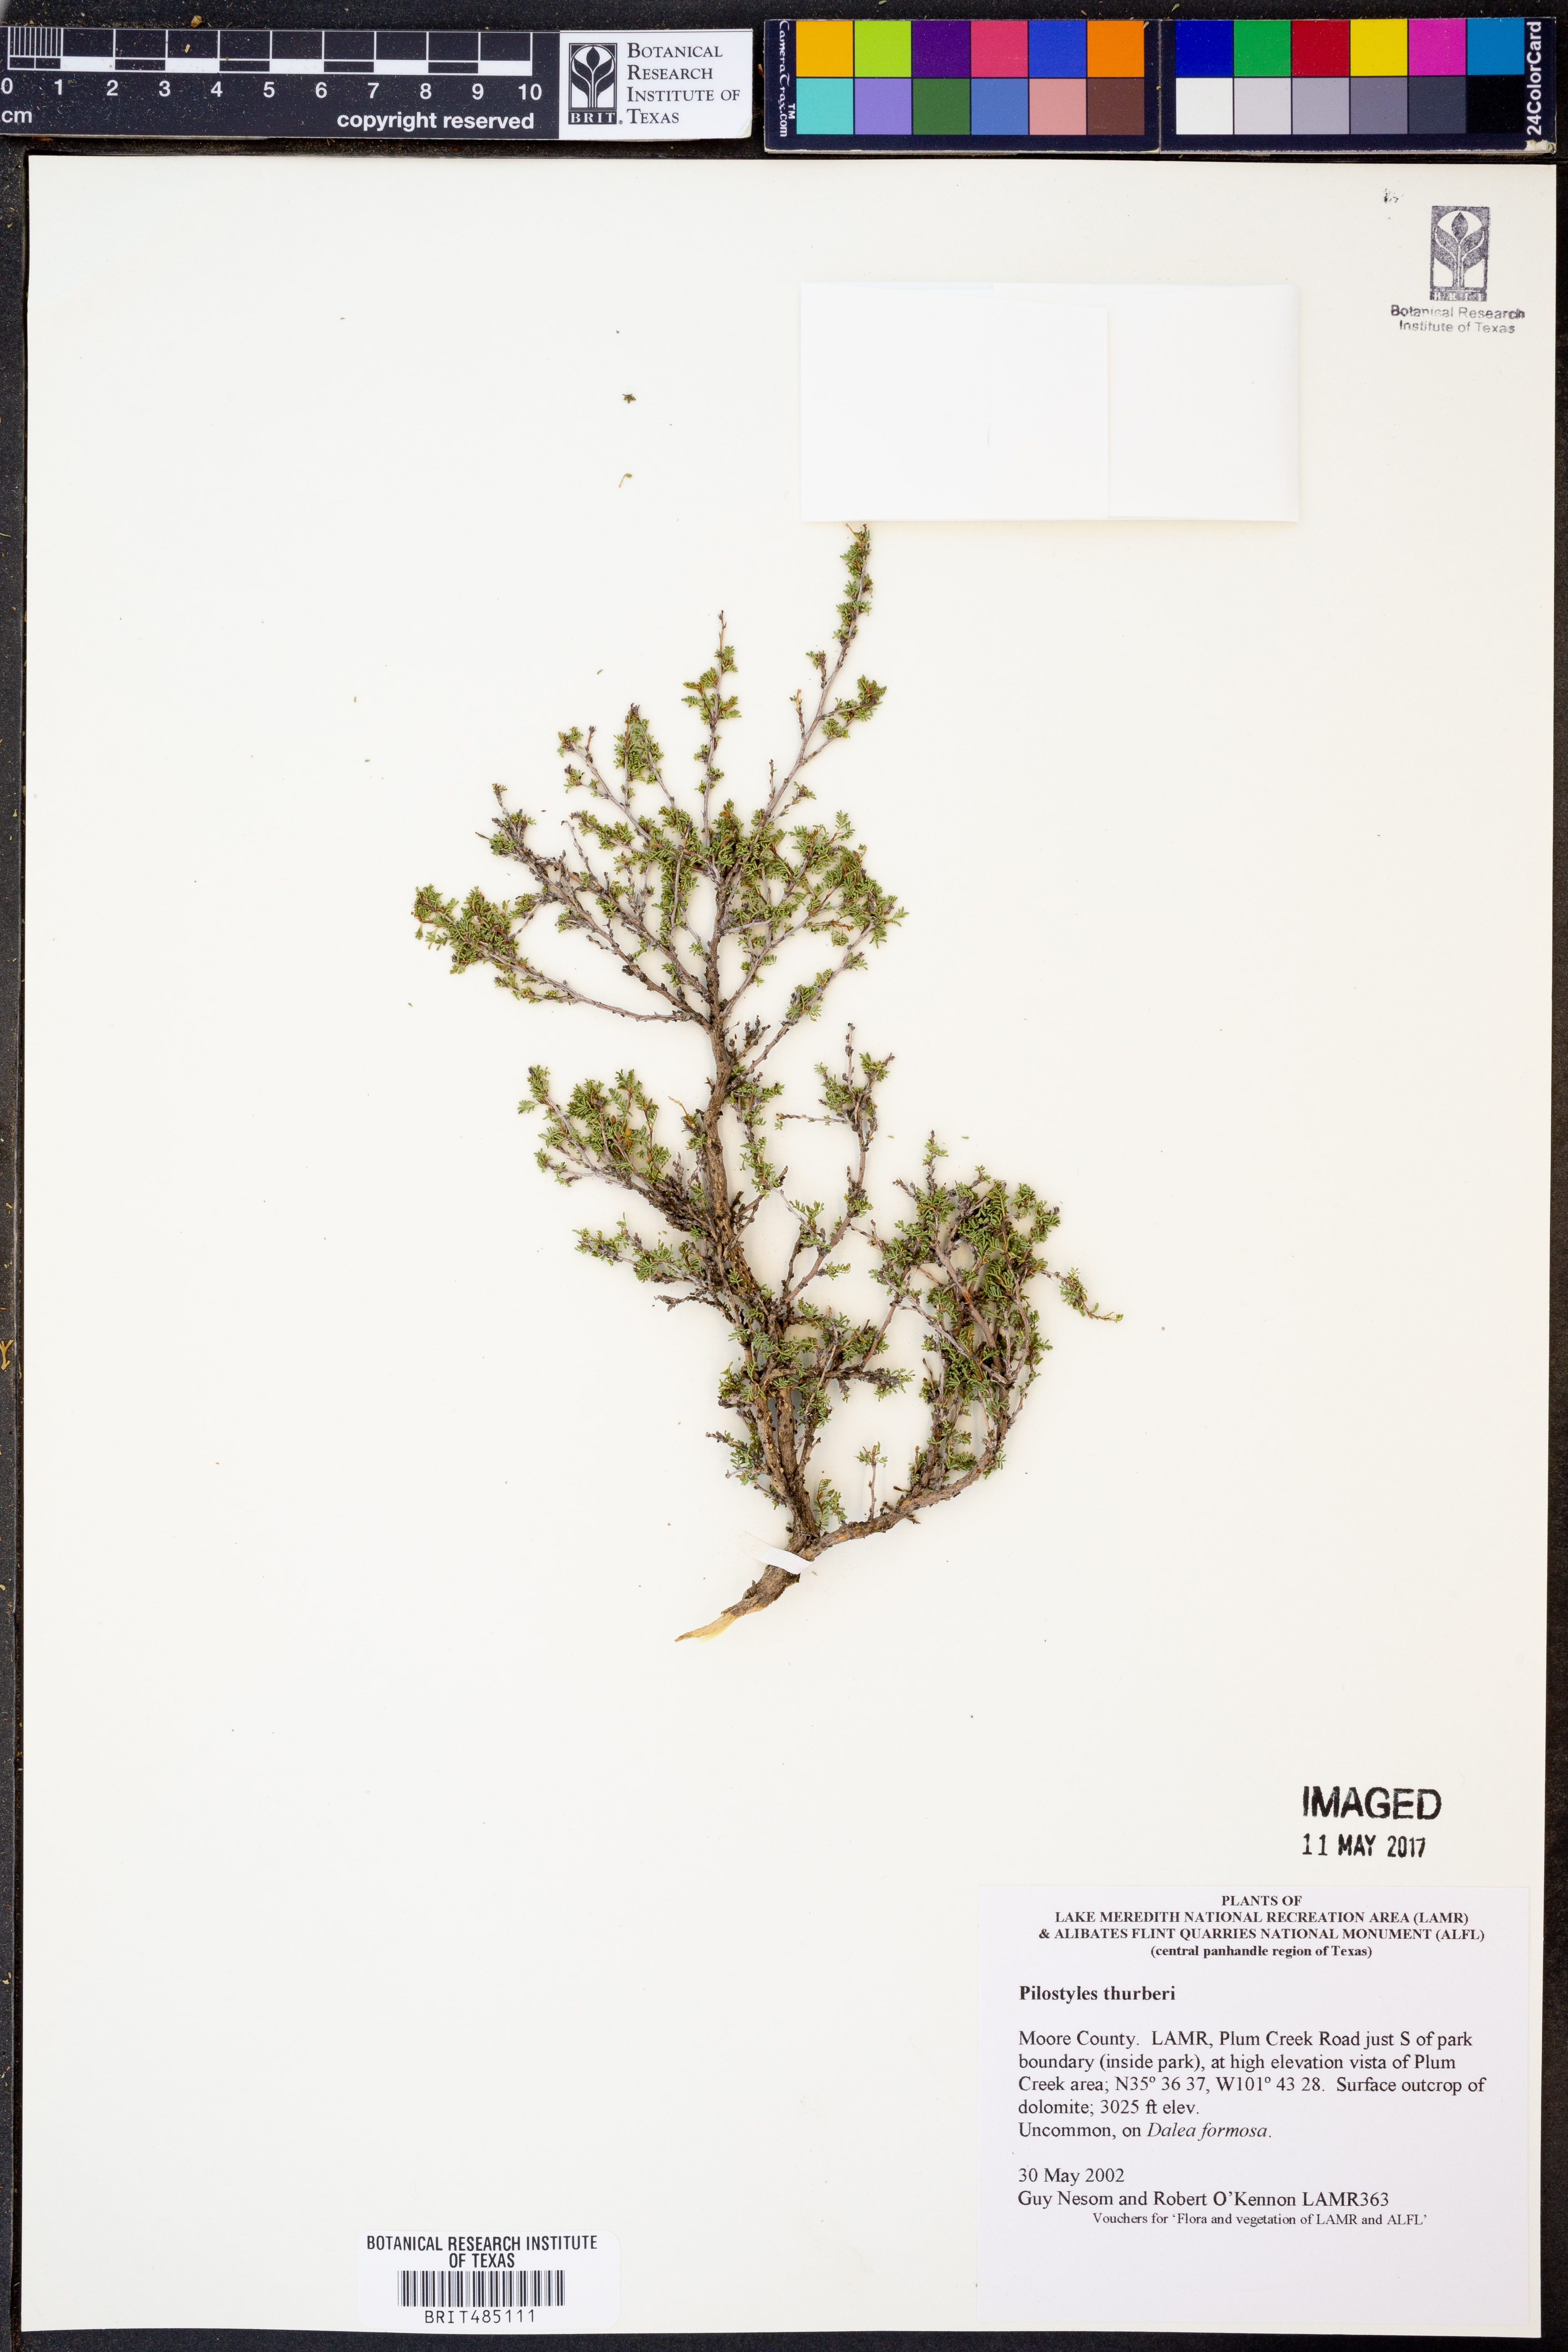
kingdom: Plantae
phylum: Tracheophyta
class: Magnoliopsida
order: Cucurbitales
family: Apodanthaceae
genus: Pilostyles
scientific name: Pilostyles thurberi
